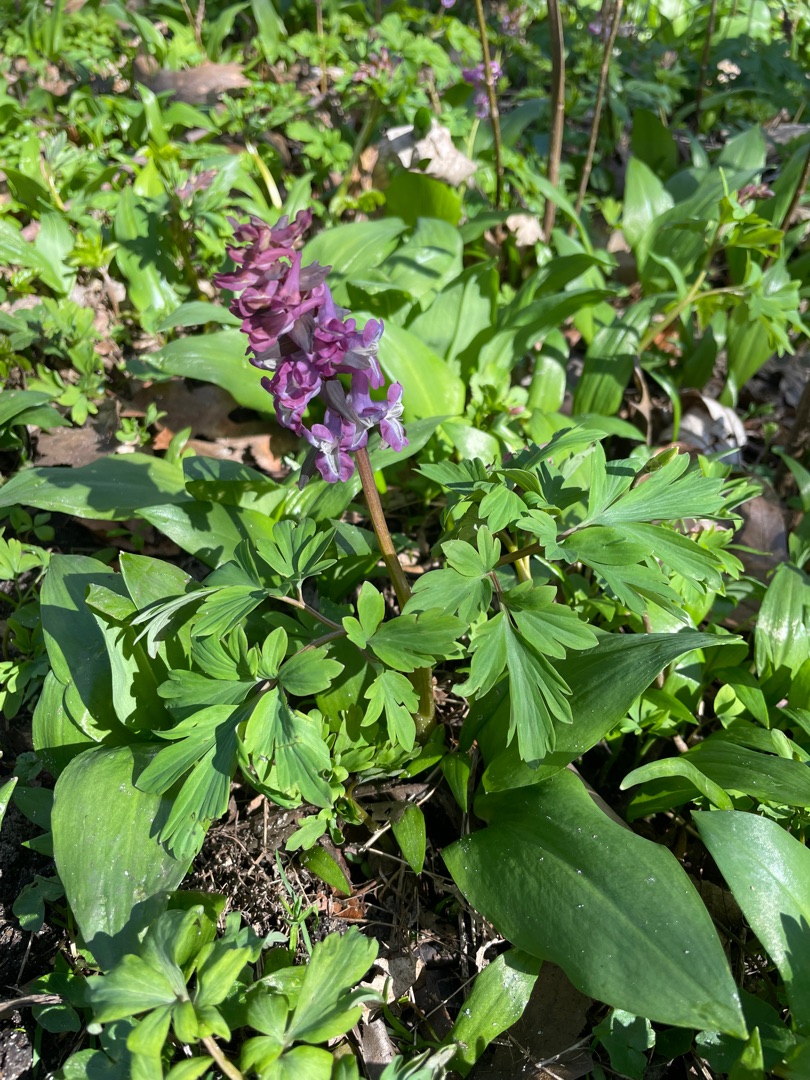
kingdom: Plantae
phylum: Tracheophyta
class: Magnoliopsida
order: Ranunculales
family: Papaveraceae
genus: Corydalis
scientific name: Corydalis cava
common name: Hulrodet lærkespore
